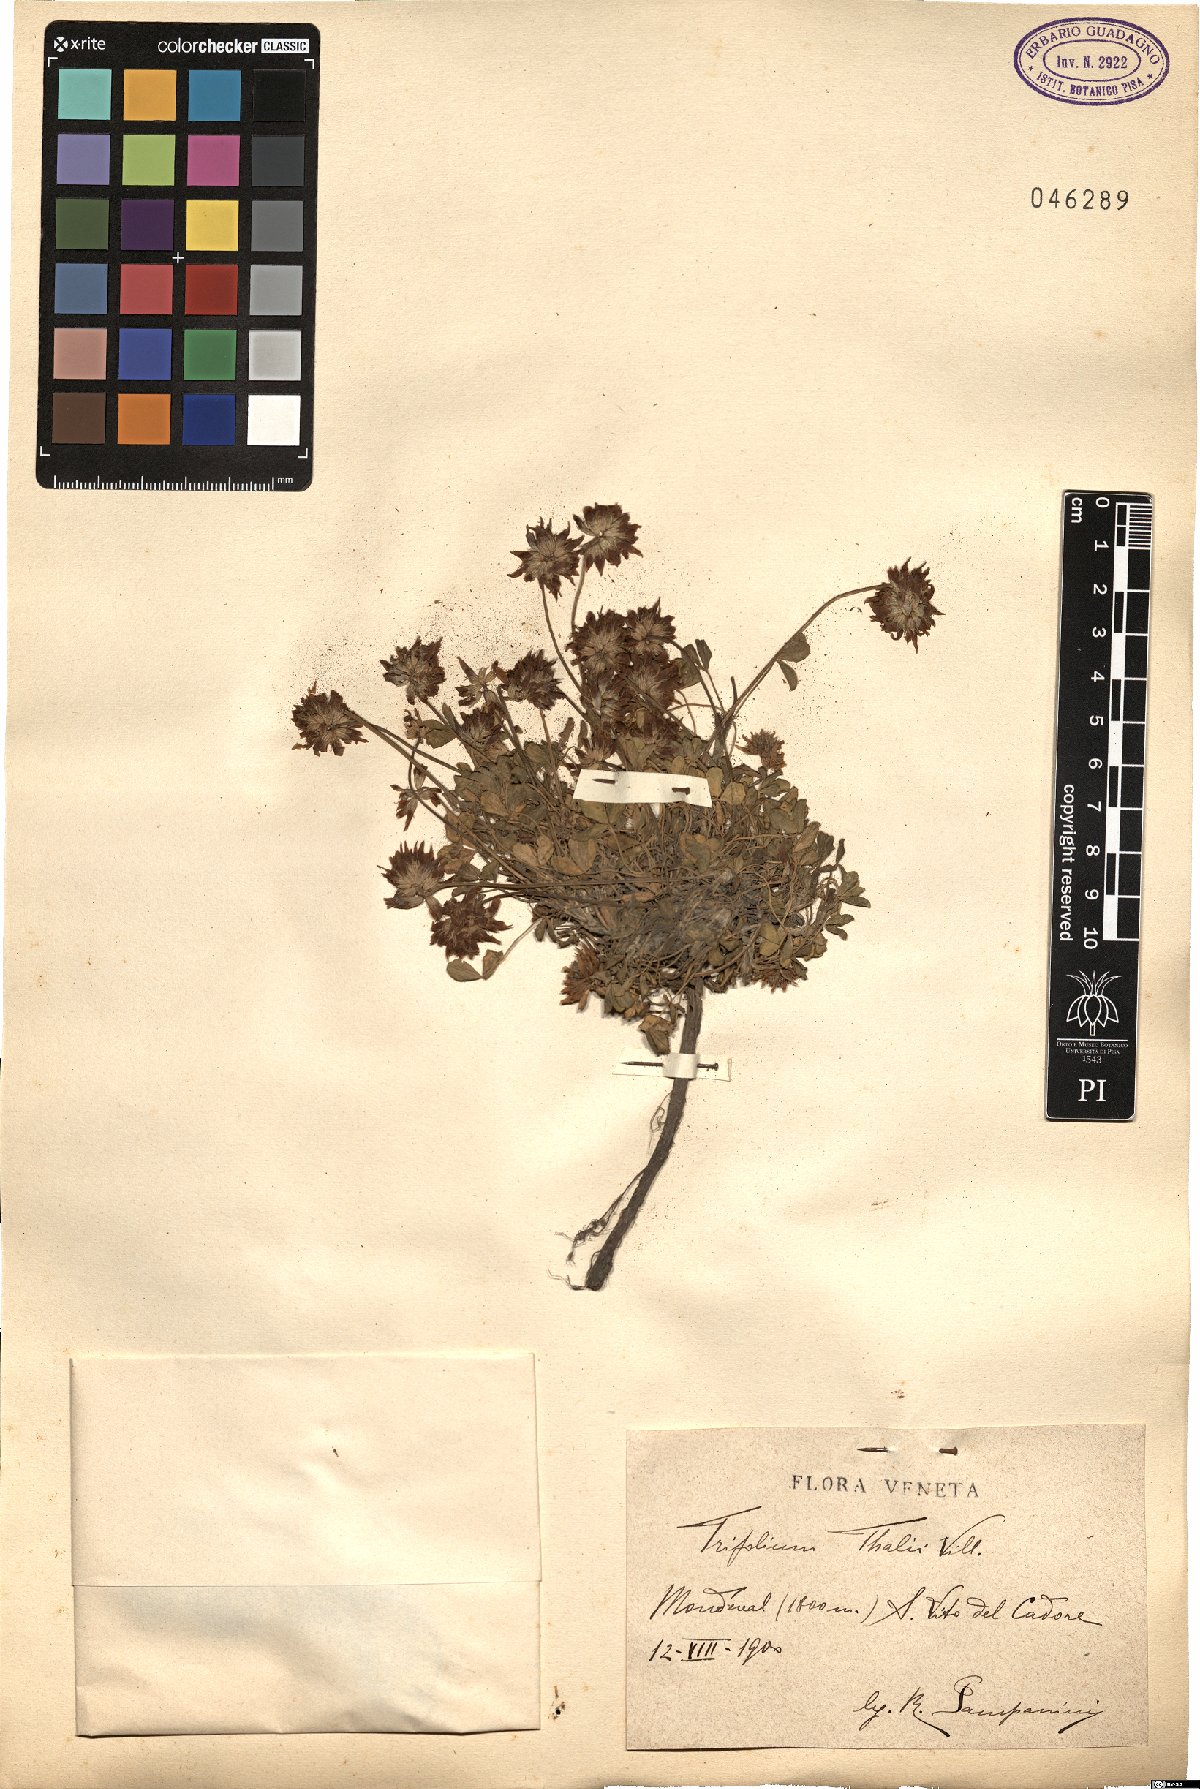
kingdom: Plantae
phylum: Tracheophyta
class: Magnoliopsida
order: Fabales
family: Fabaceae
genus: Trifolium
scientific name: Trifolium thalii
